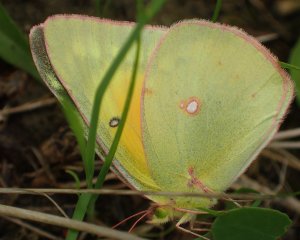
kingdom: Animalia
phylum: Arthropoda
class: Insecta
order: Lepidoptera
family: Pieridae
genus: Colias
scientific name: Colias eurytheme
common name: Orange Sulphur
